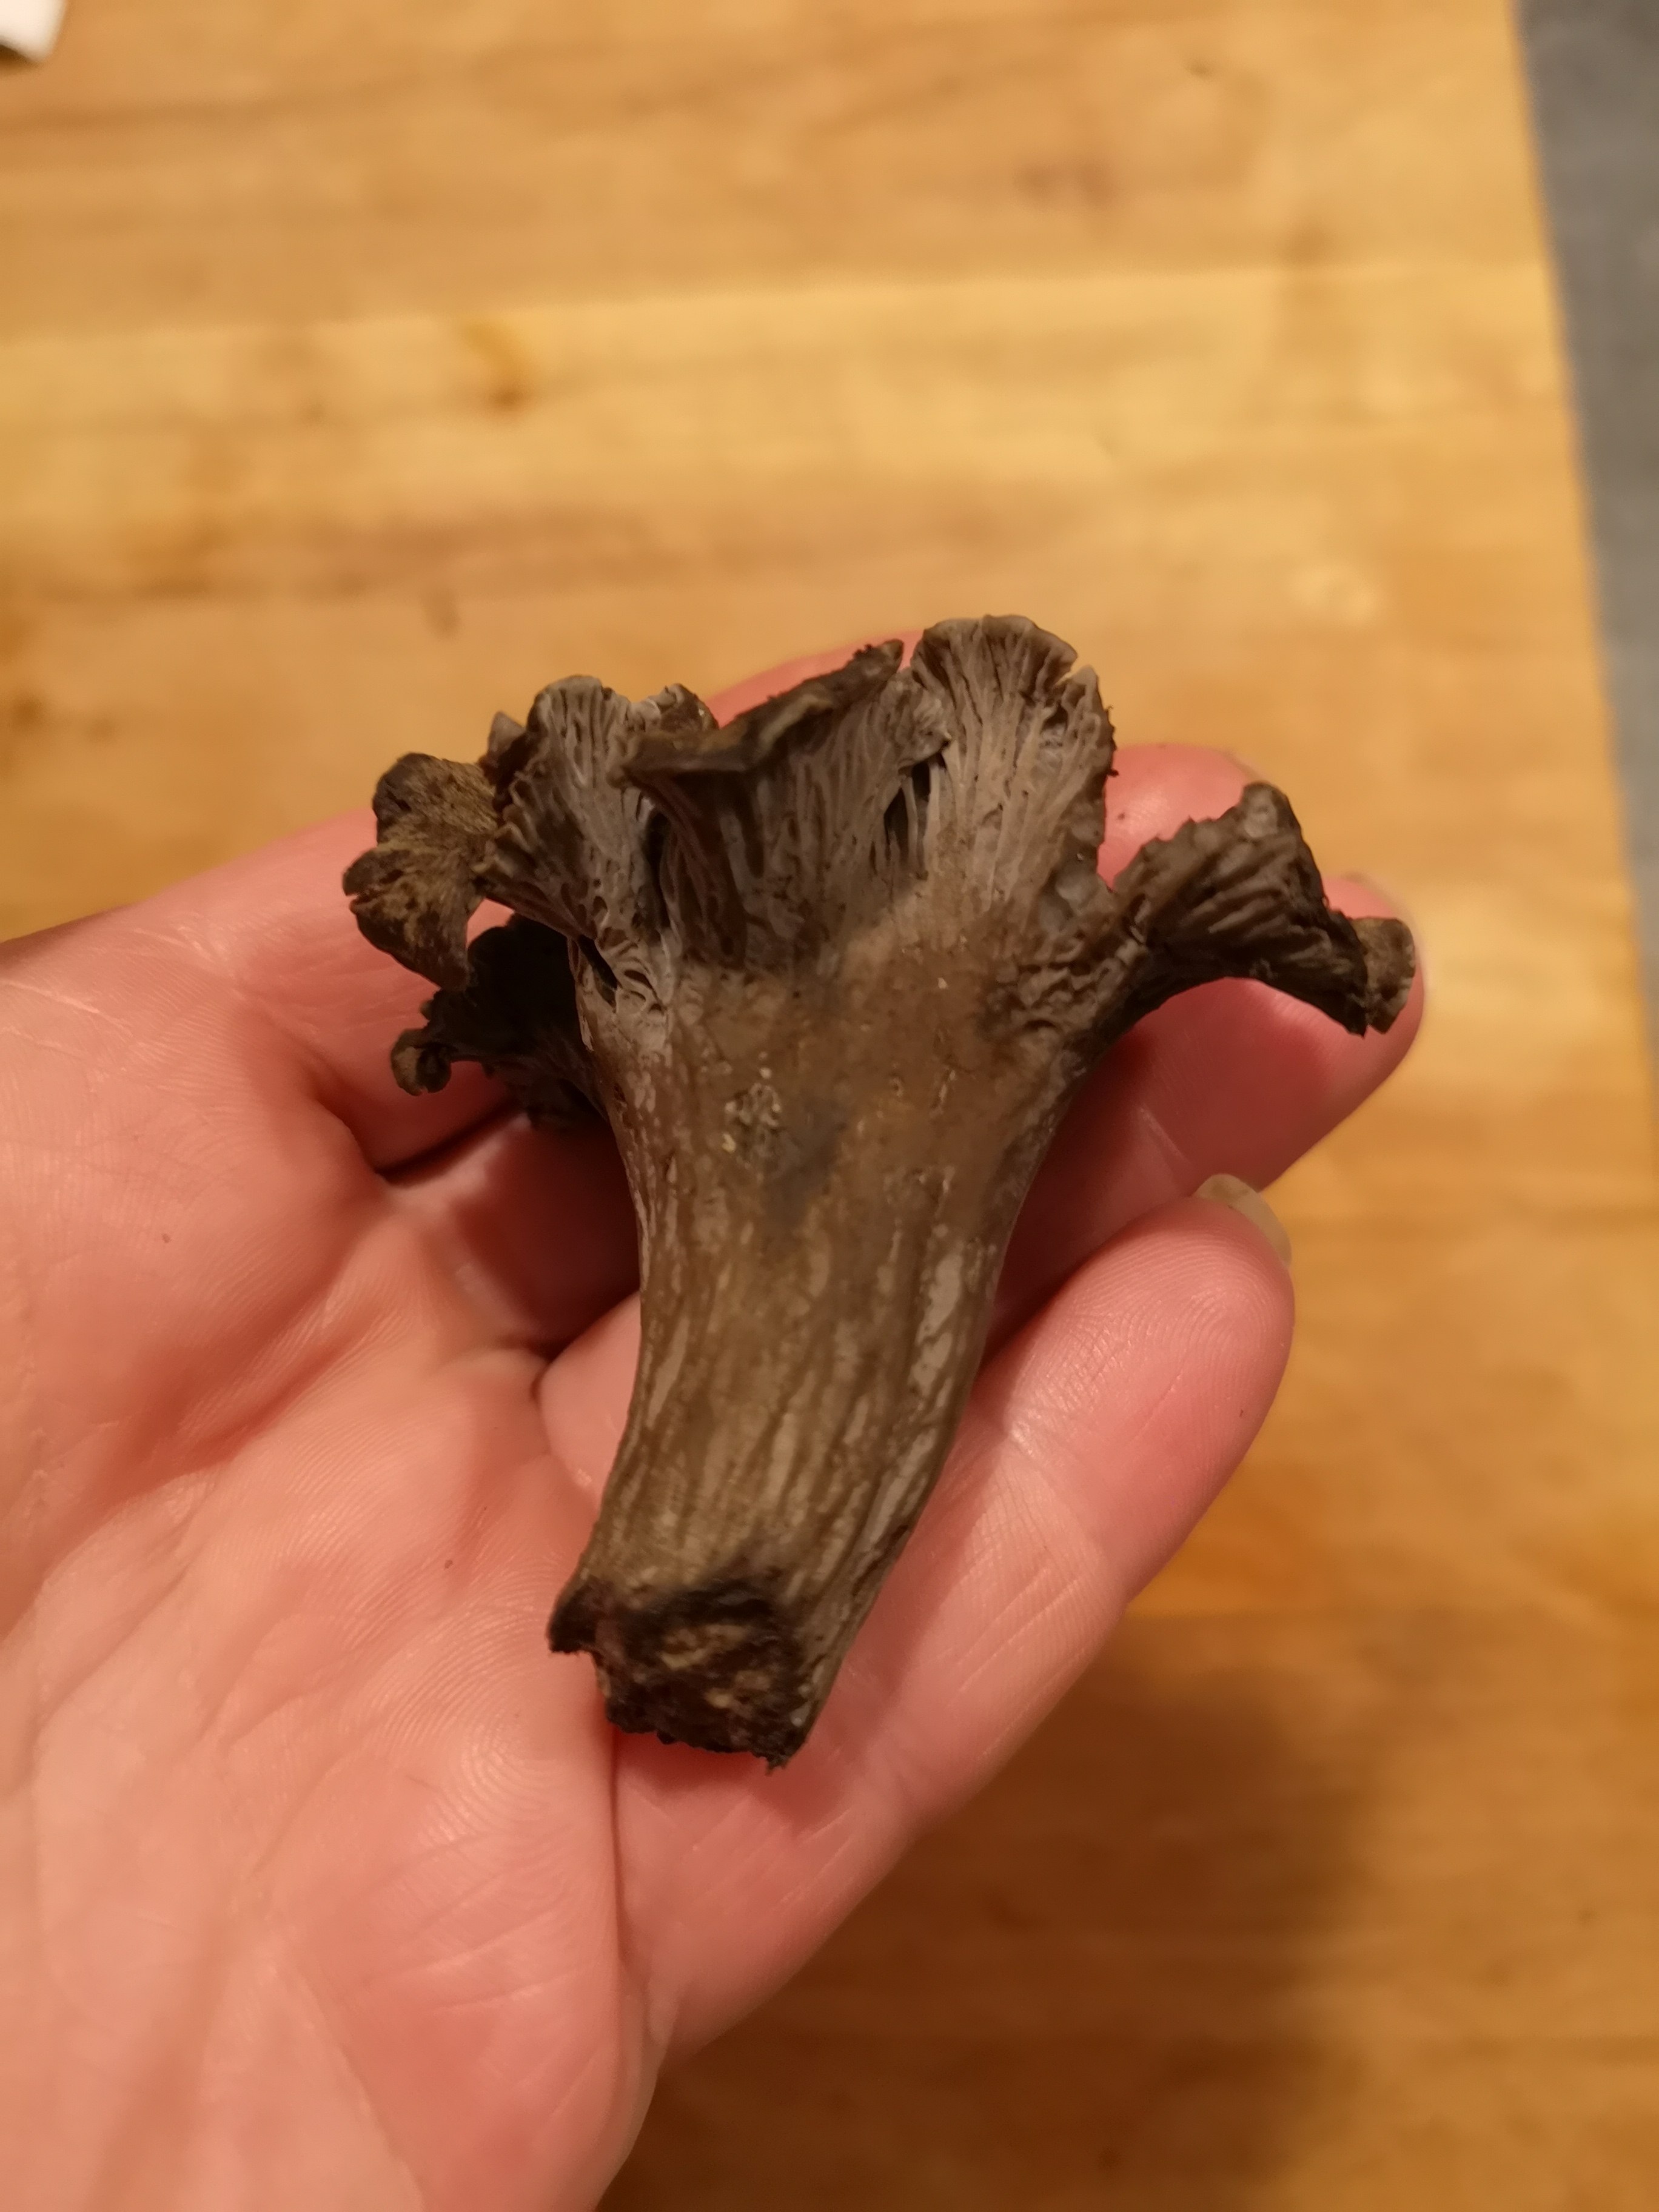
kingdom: Fungi
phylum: Basidiomycota
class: Agaricomycetes
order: Cantharellales
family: Hydnaceae
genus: Cantharellus
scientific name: Cantharellus cinereus
